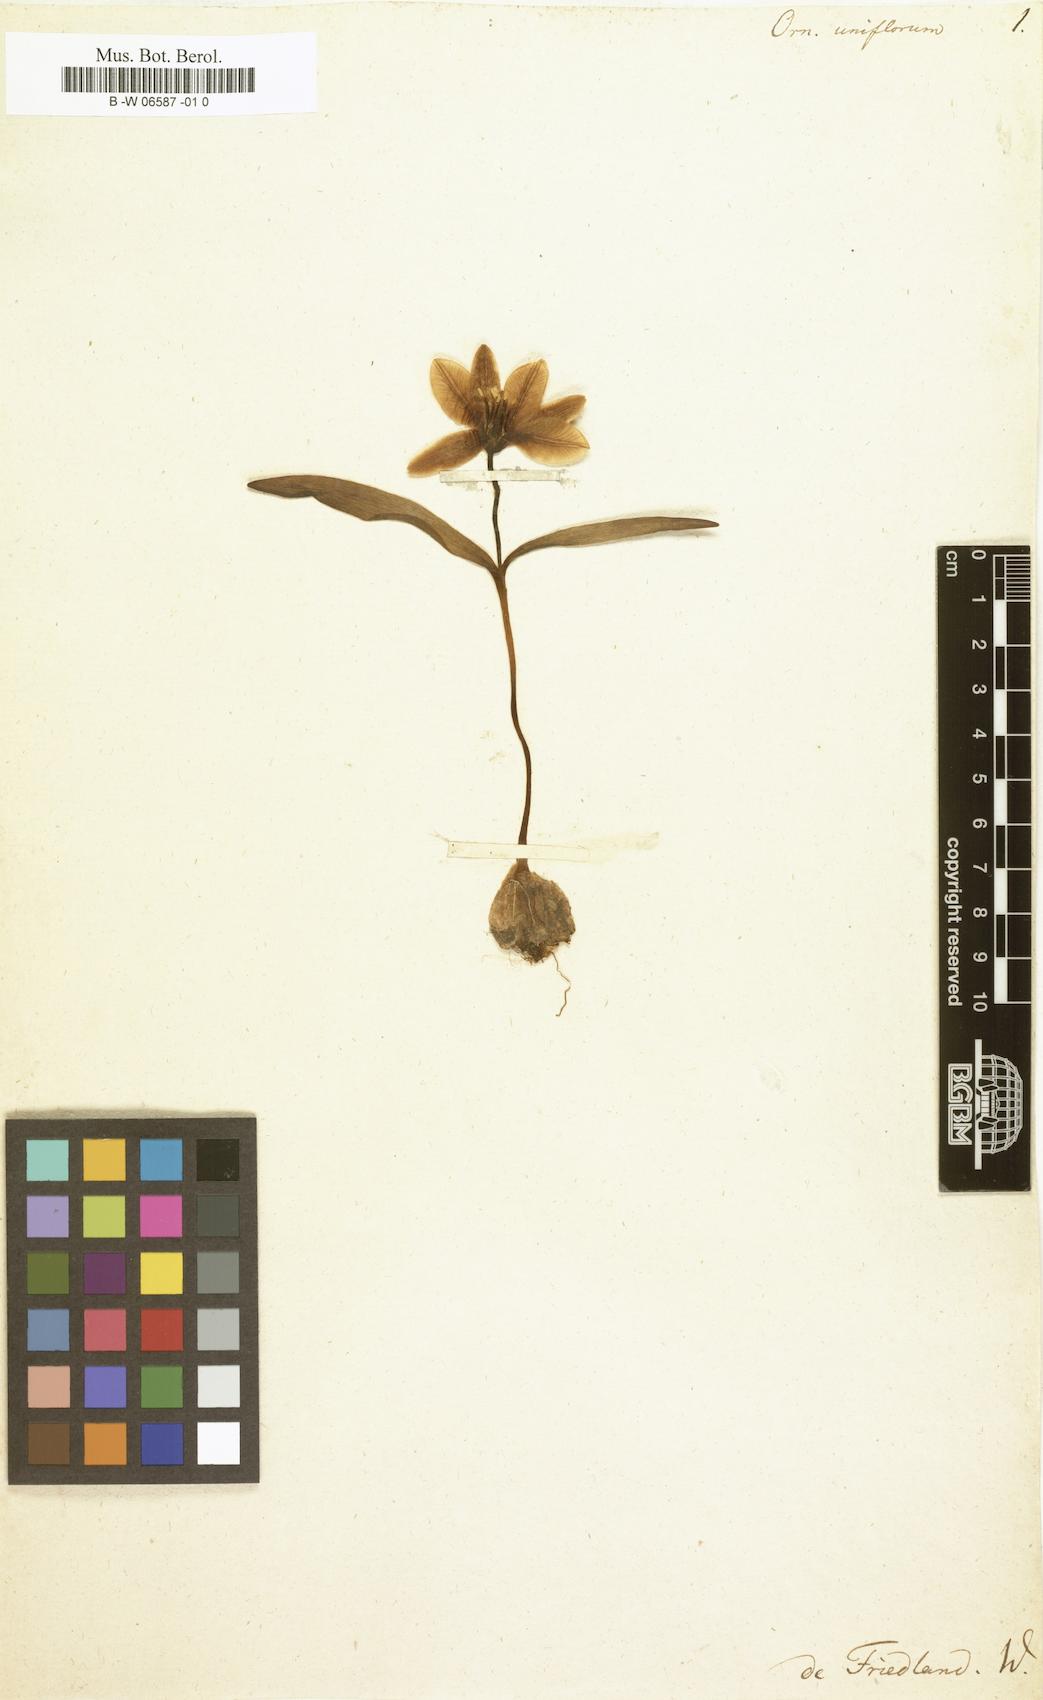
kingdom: Plantae
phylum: Tracheophyta
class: Liliopsida
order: Liliales
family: Liliaceae
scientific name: Liliaceae
